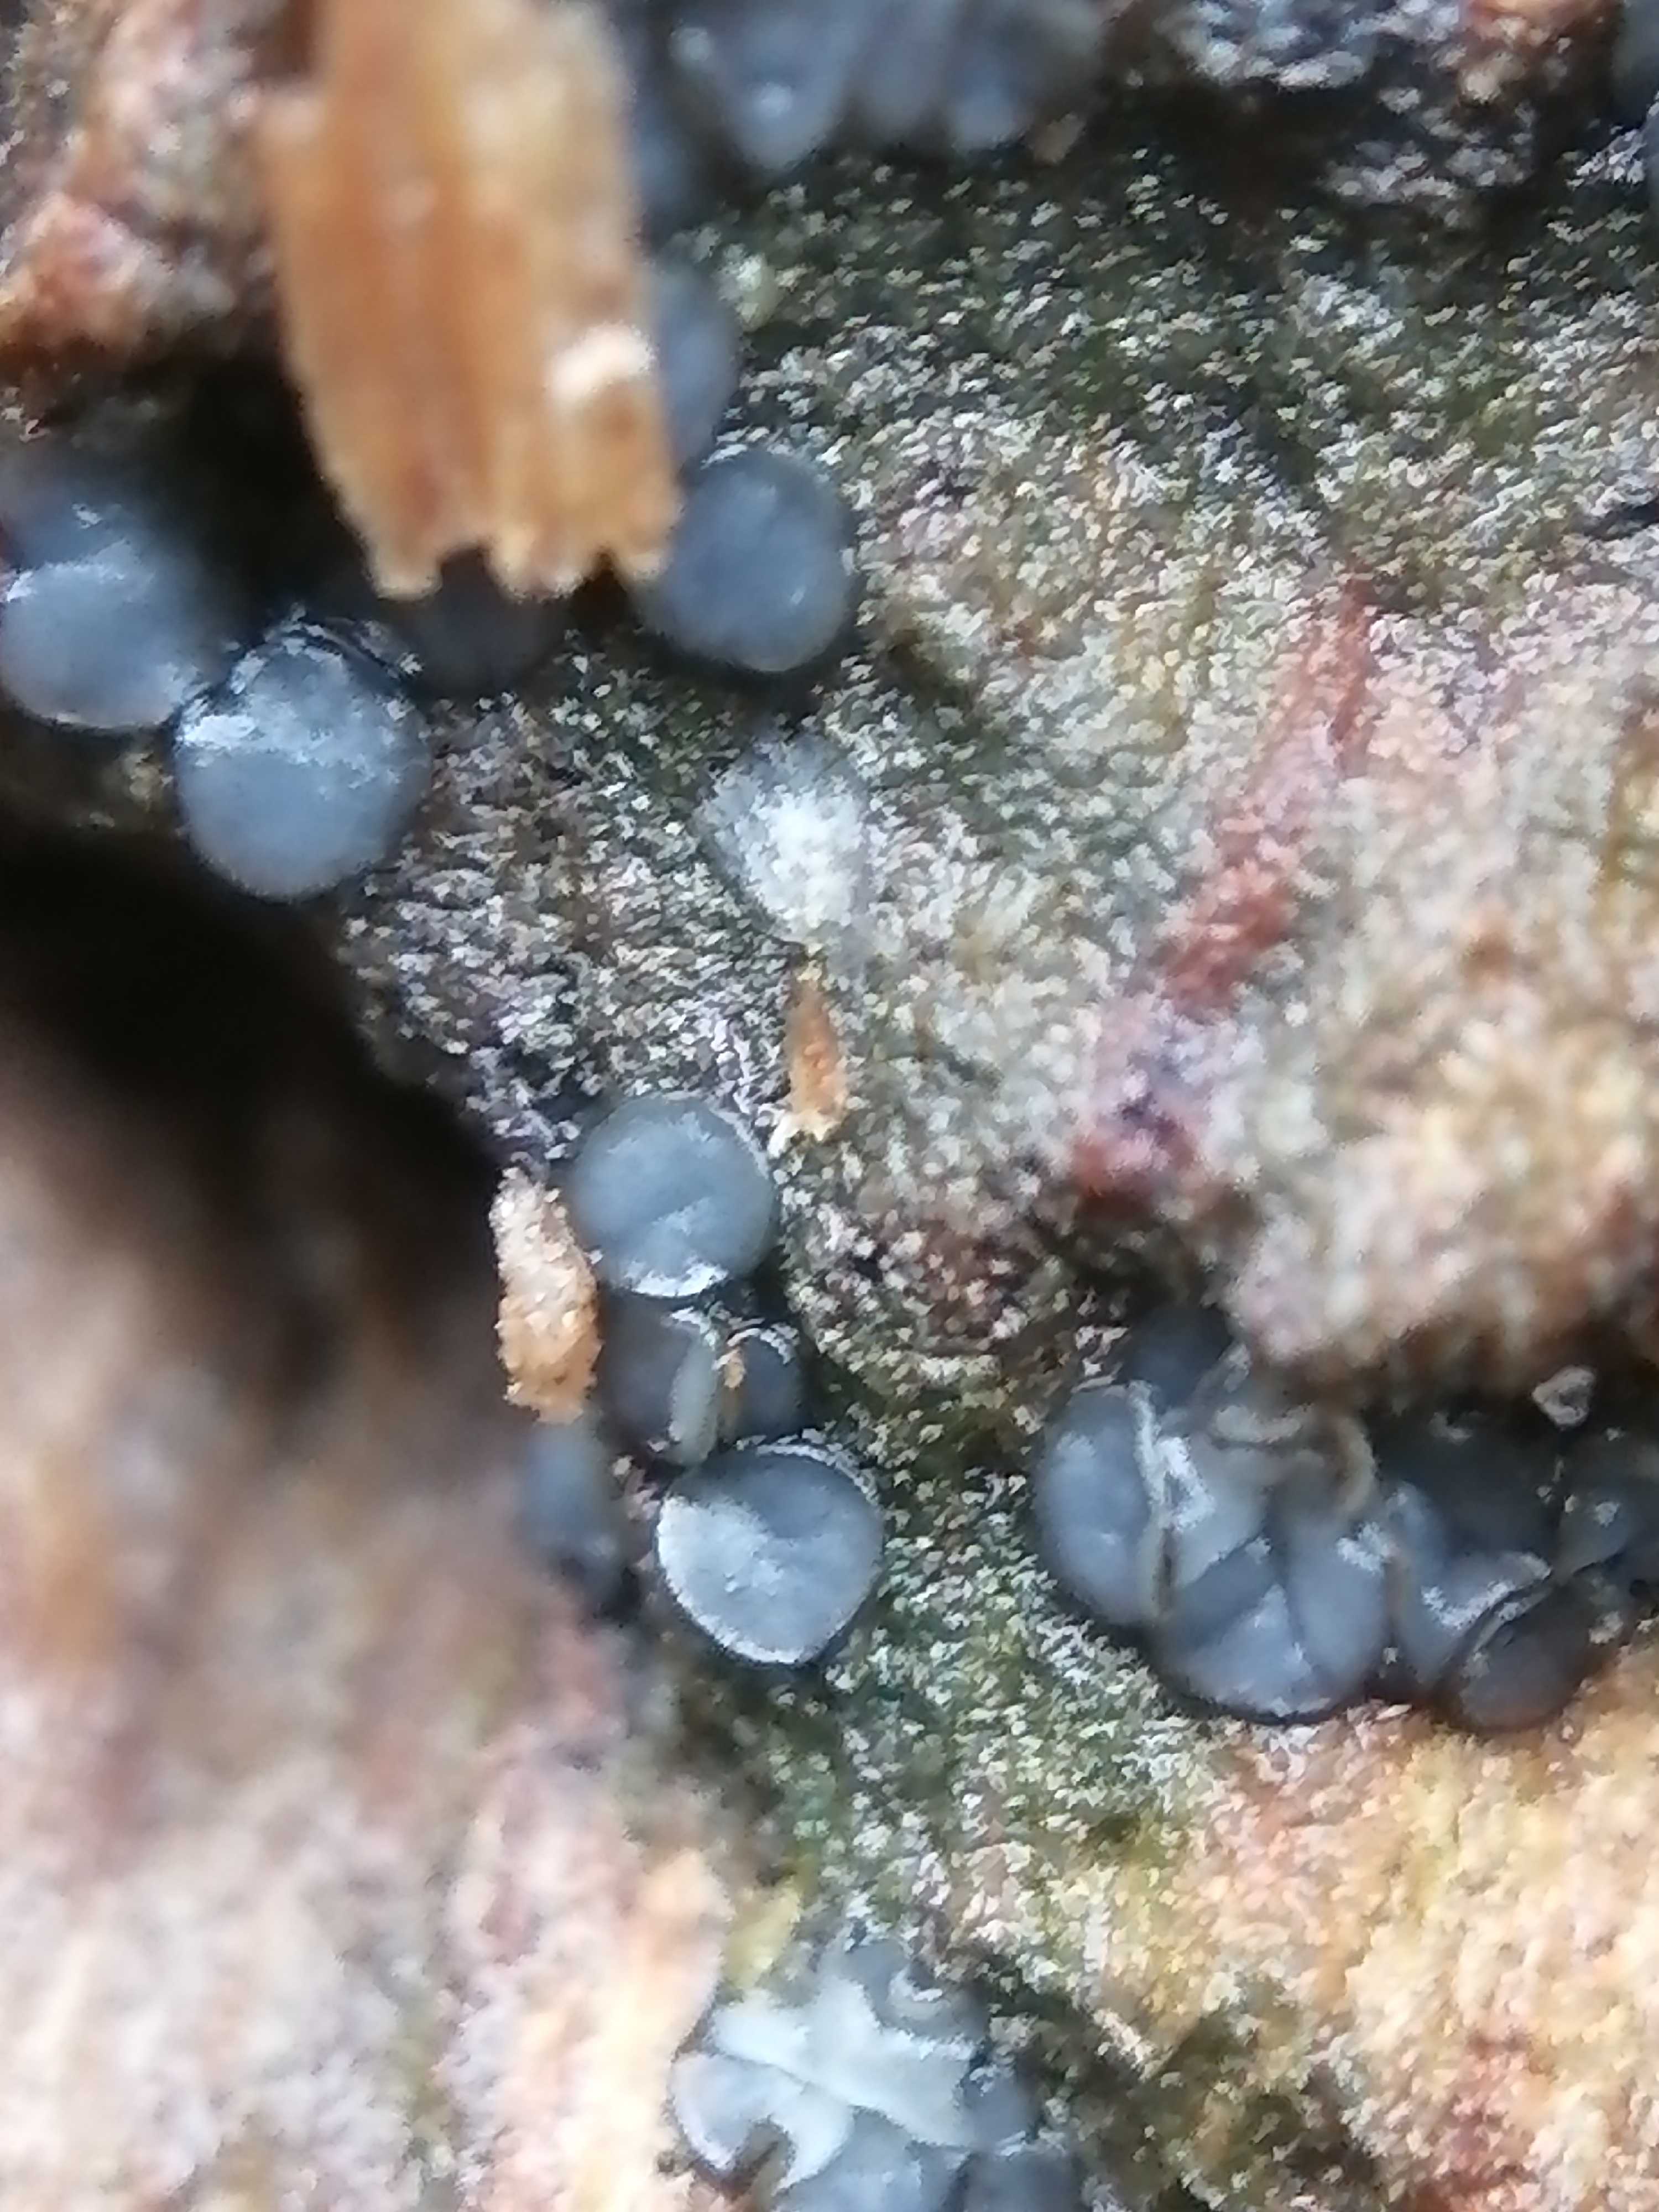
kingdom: Fungi
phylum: Ascomycota
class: Leotiomycetes
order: Helotiales
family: Mollisiaceae
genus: Mollisia
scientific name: Mollisia
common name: gråskive
